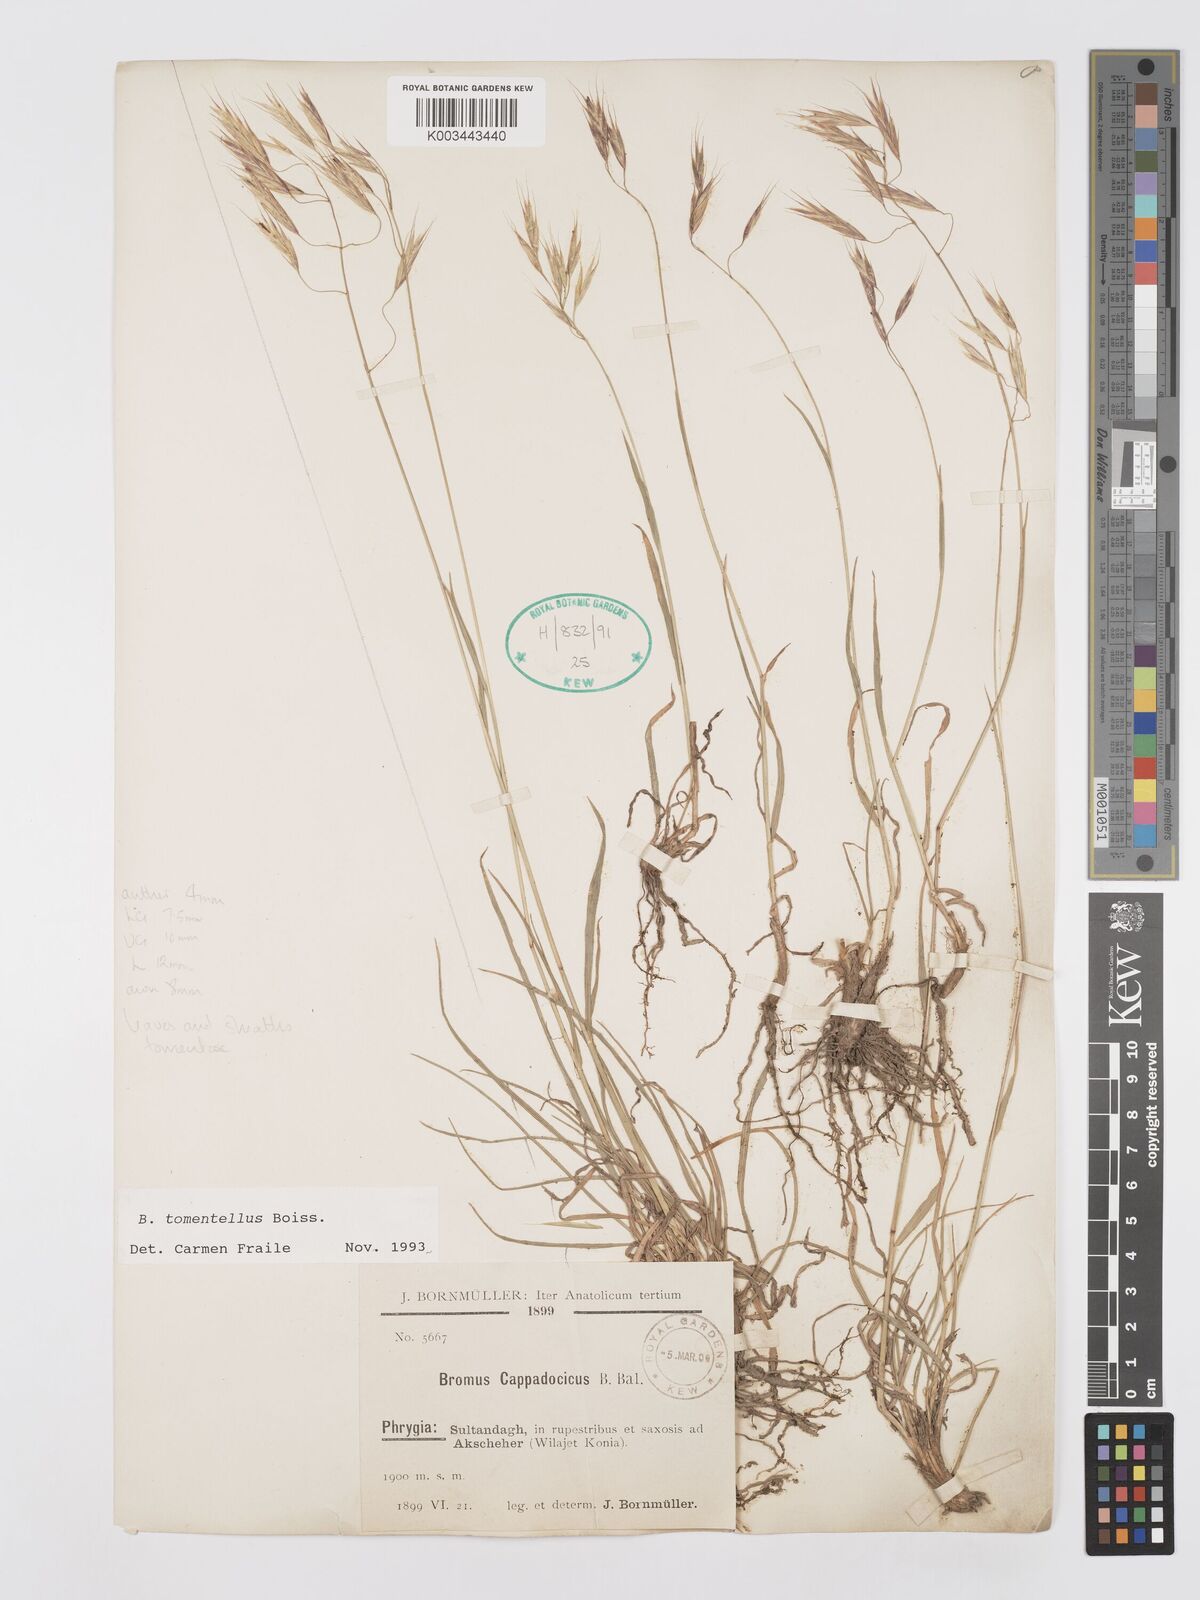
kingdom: Plantae
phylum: Tracheophyta
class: Liliopsida
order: Poales
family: Poaceae
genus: Bromus
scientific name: Bromus tomentellus
